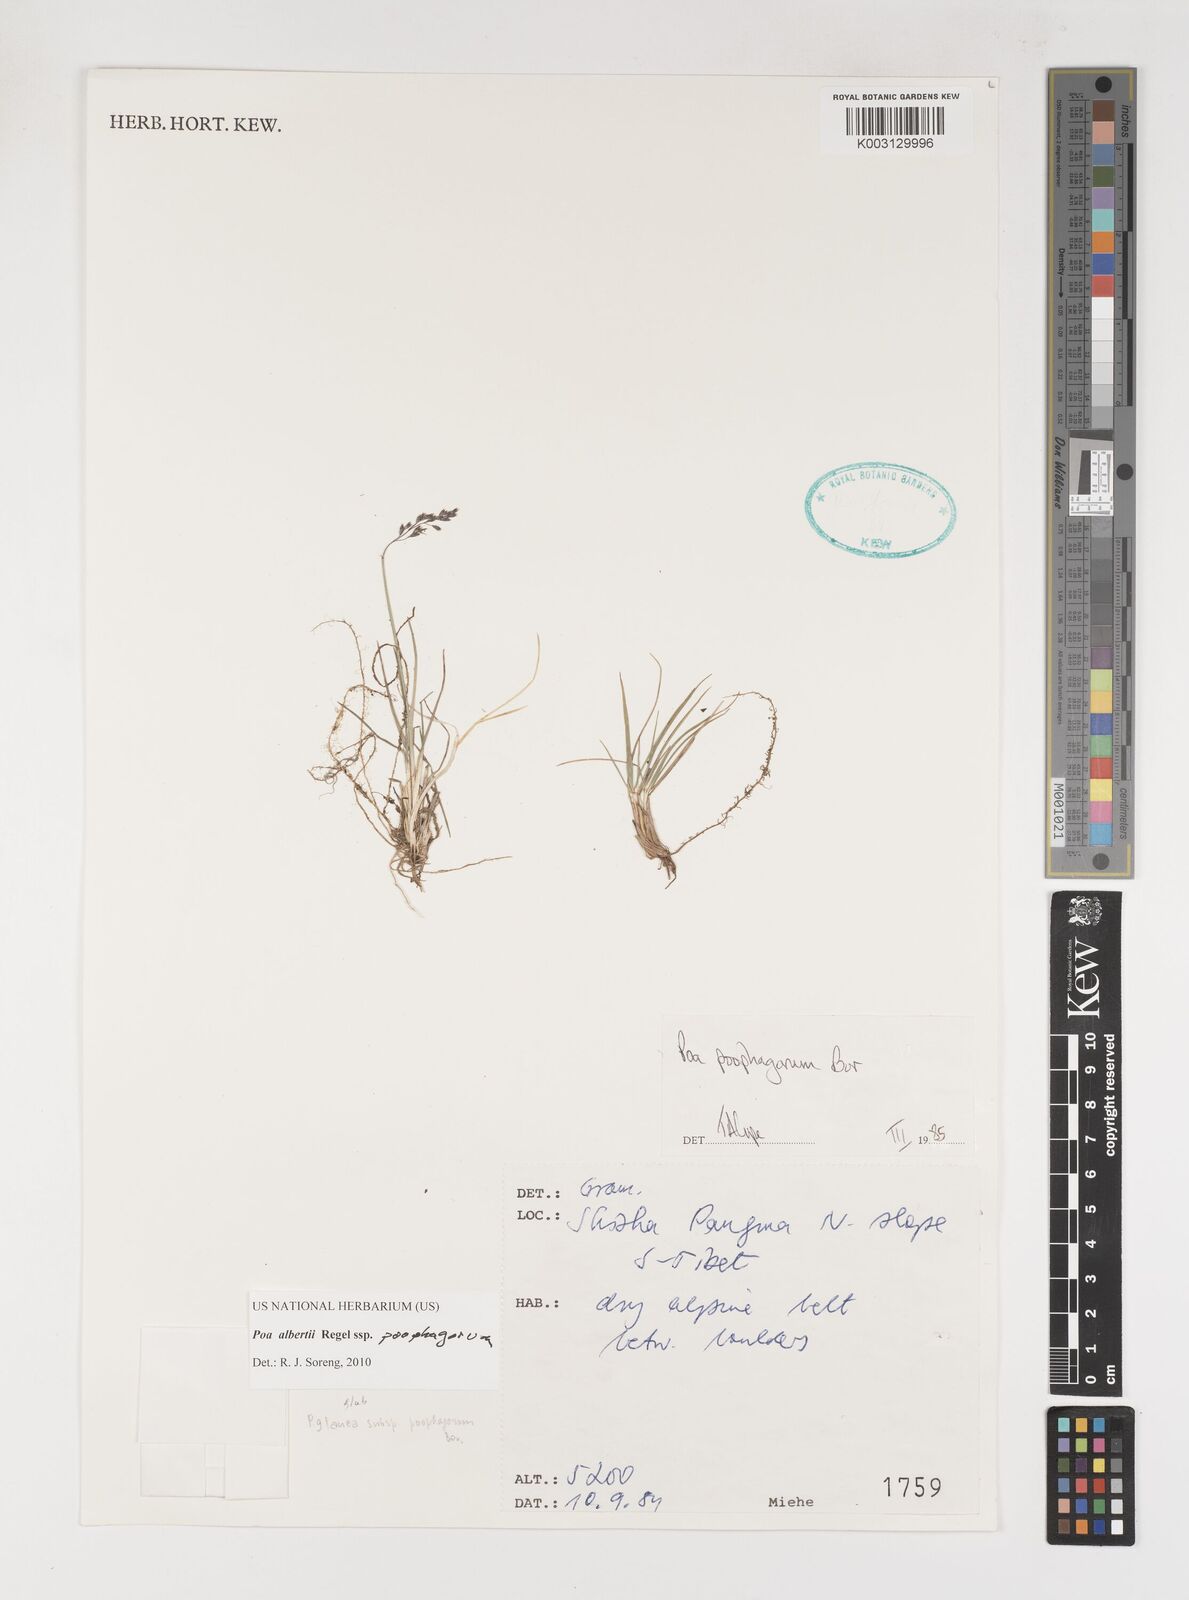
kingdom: Plantae
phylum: Tracheophyta
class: Liliopsida
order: Poales
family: Poaceae
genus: Poa
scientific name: Poa alberti
